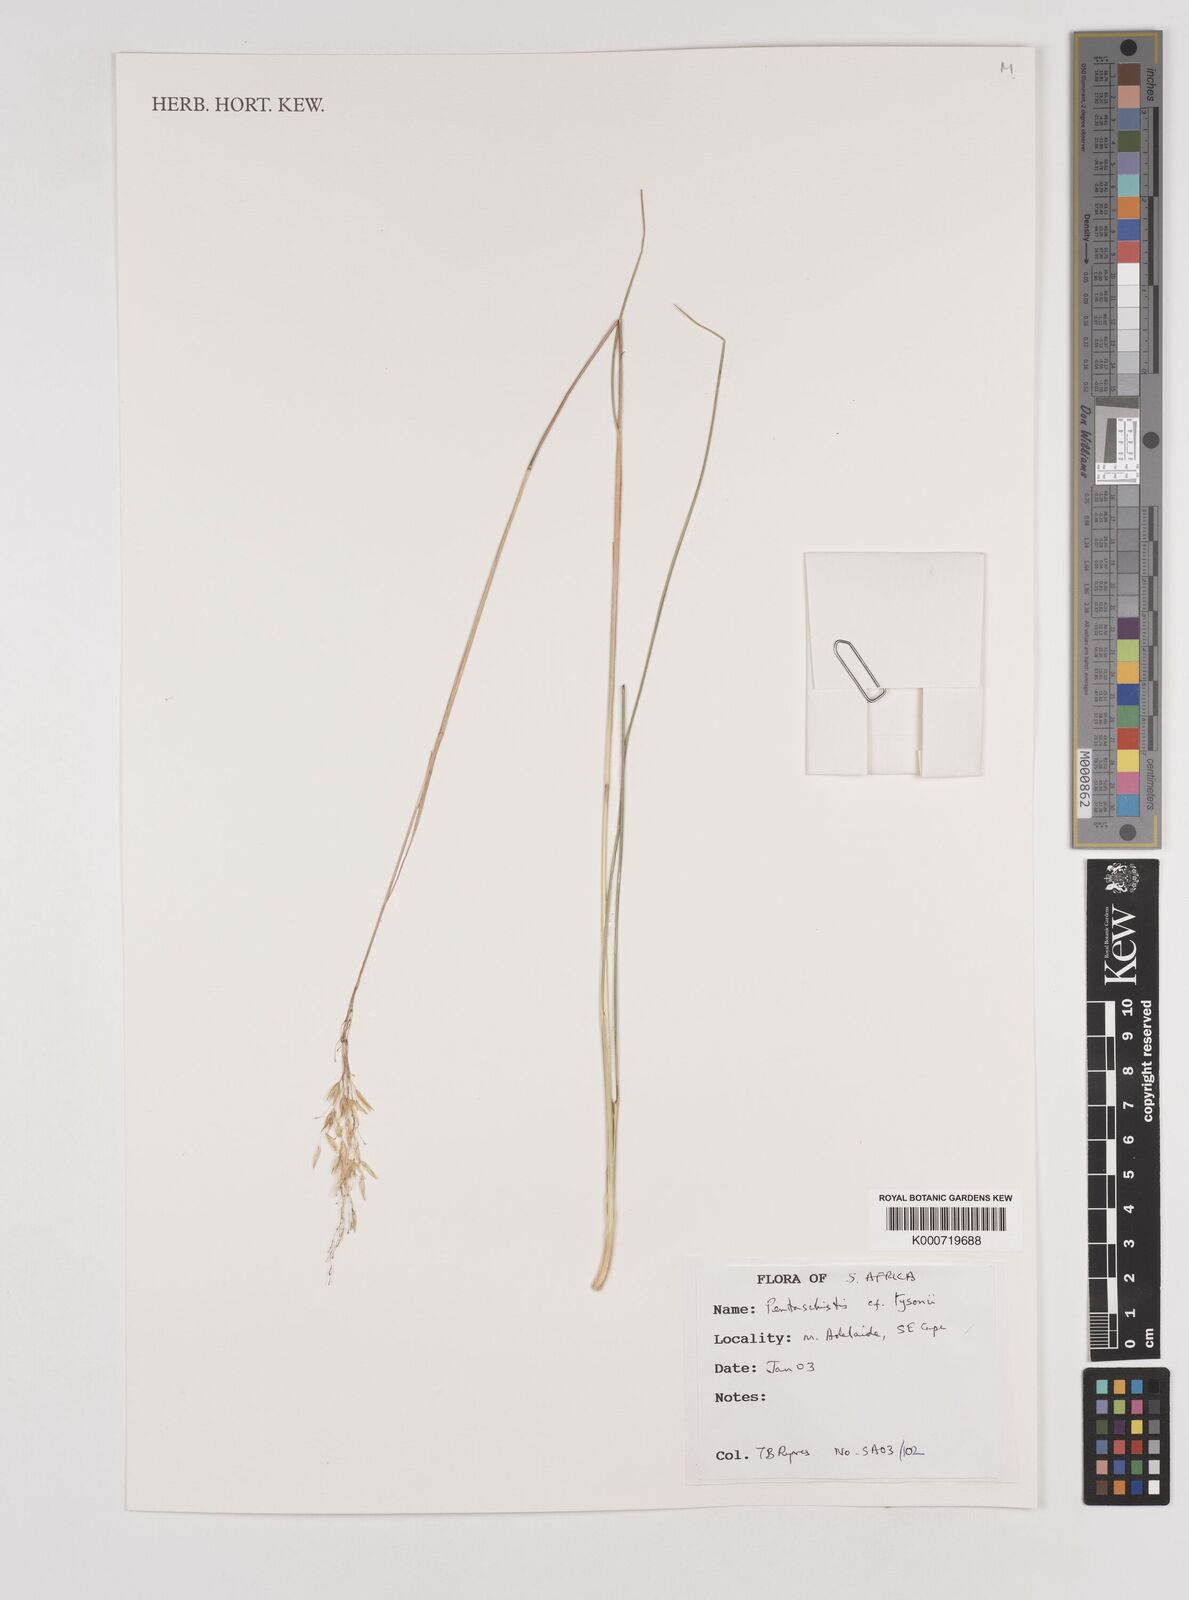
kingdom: Plantae
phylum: Tracheophyta
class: Liliopsida
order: Poales
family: Poaceae
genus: Pentameris
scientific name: Pentameris tysonii
